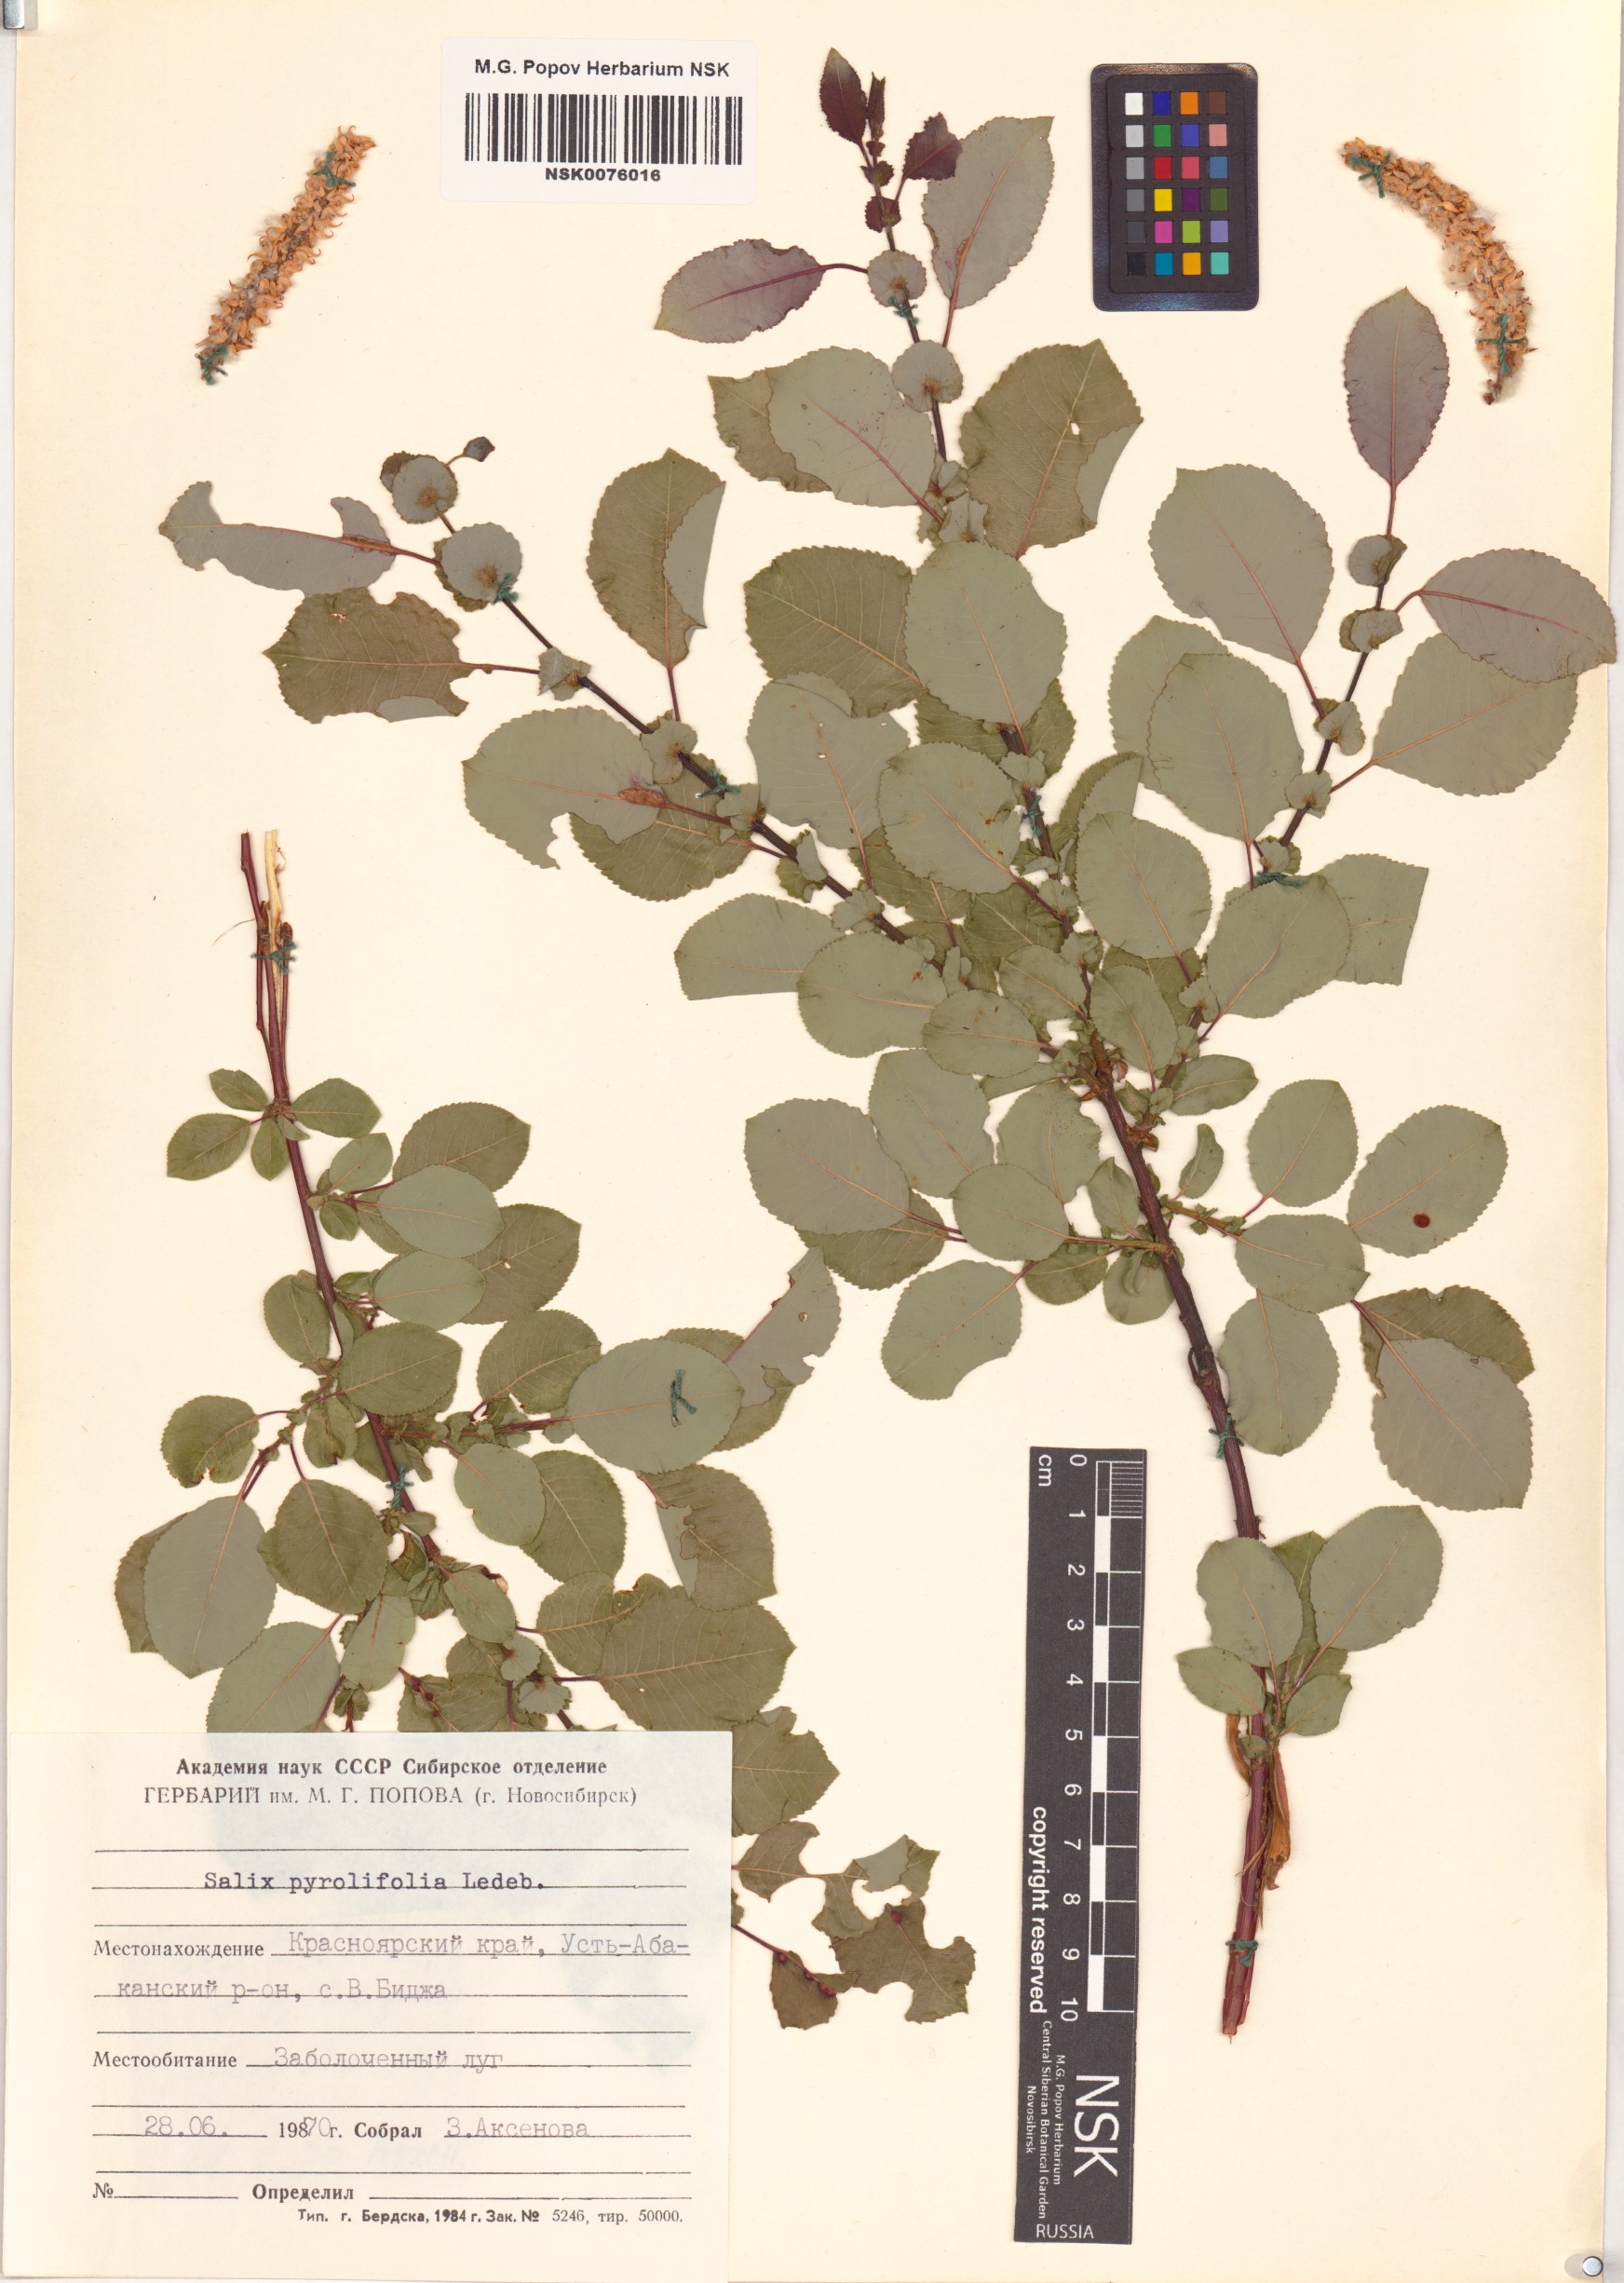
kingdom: Plantae
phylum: Tracheophyta
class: Magnoliopsida
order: Malpighiales
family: Salicaceae
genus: Salix
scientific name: Salix pyrolifolia
